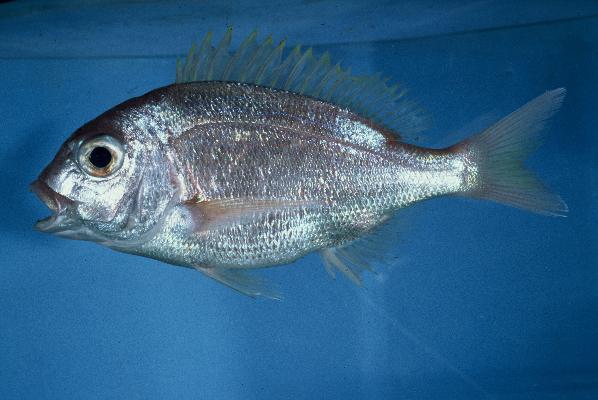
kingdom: Animalia
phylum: Chordata
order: Perciformes
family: Sparidae
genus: Polysteganus
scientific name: Polysteganus coeruleopunctatus
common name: Blueskin
